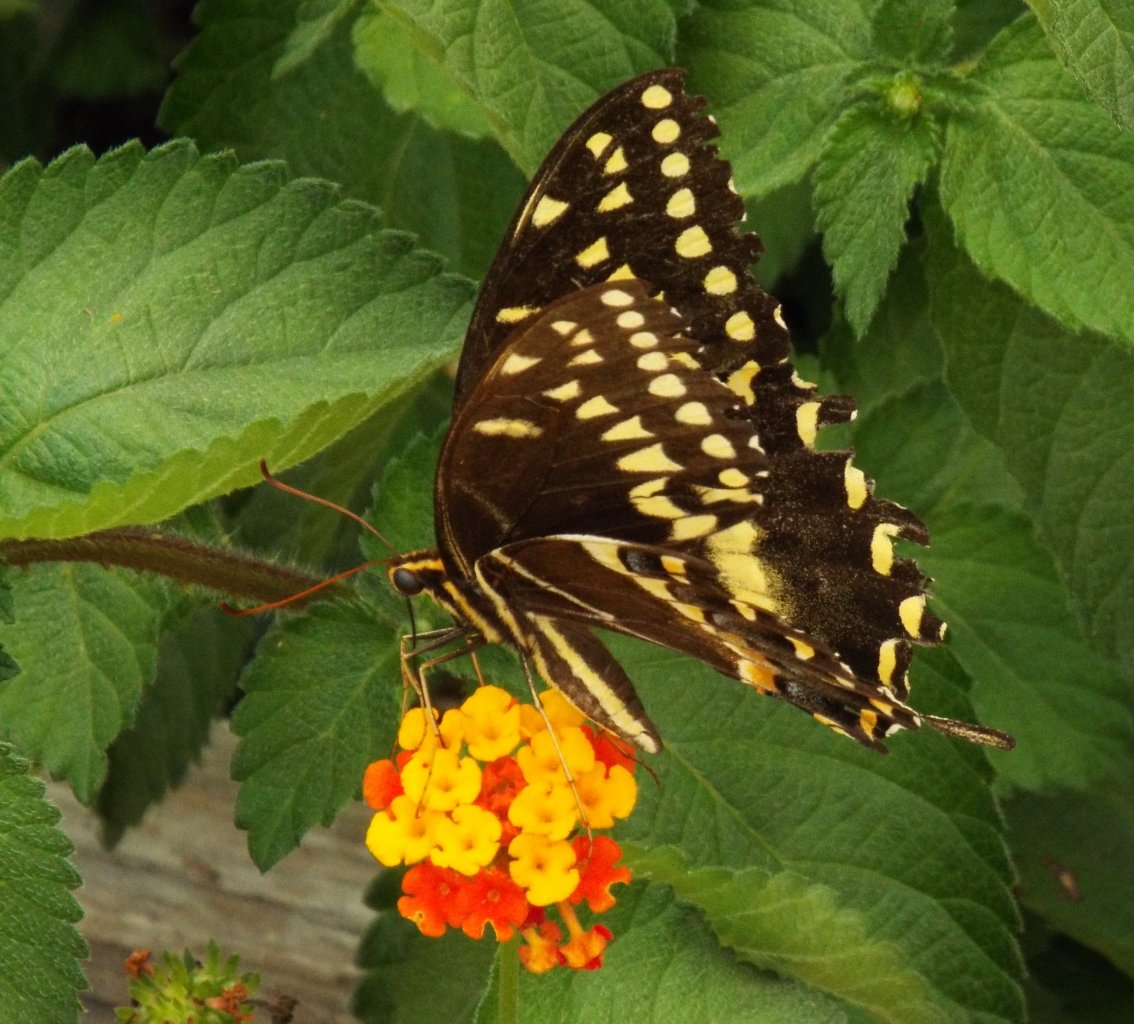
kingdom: Animalia
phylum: Arthropoda
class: Insecta
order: Lepidoptera
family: Papilionidae
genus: Pterourus
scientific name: Pterourus palamedes
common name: Palamedes Swallowtail
